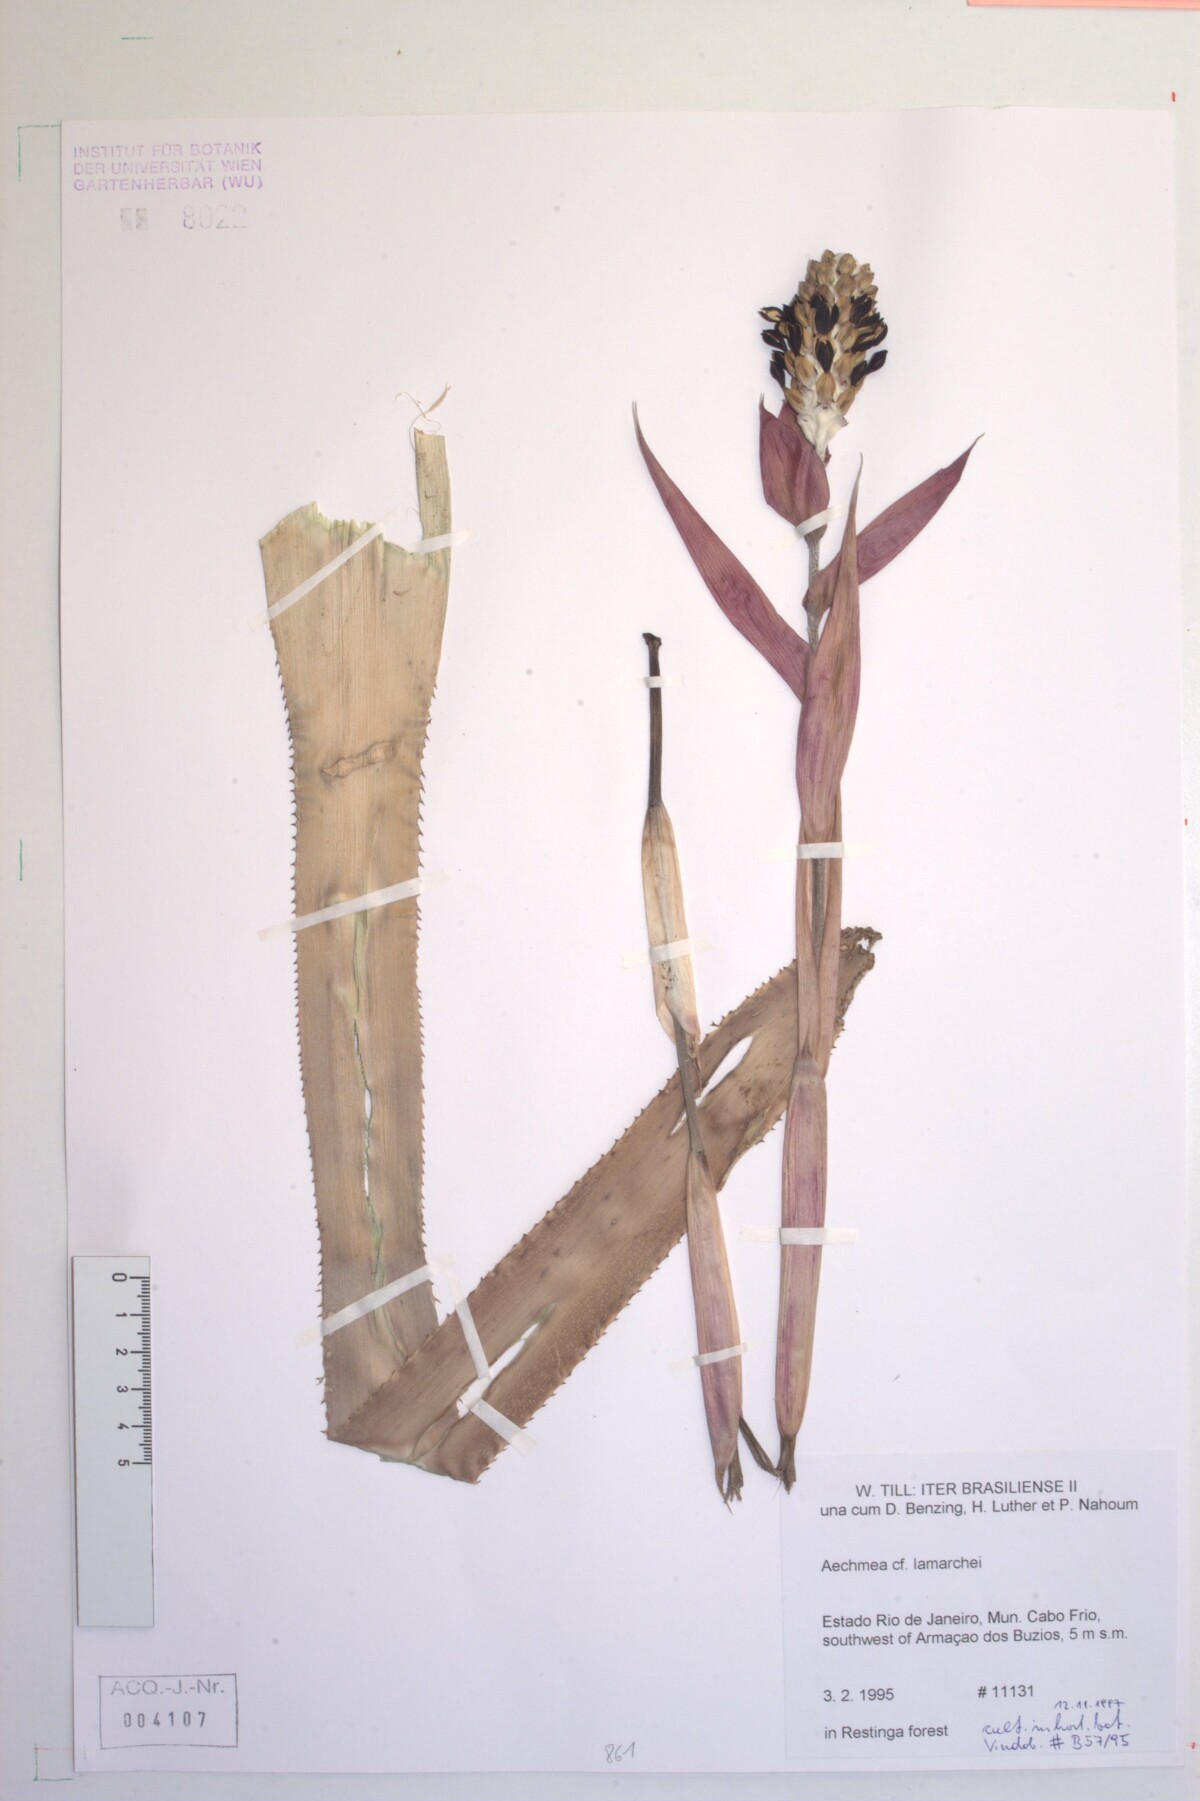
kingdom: Plantae
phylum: Tracheophyta
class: Liliopsida
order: Poales
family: Bromeliaceae
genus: Aechmea
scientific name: Aechmea lamarchei
